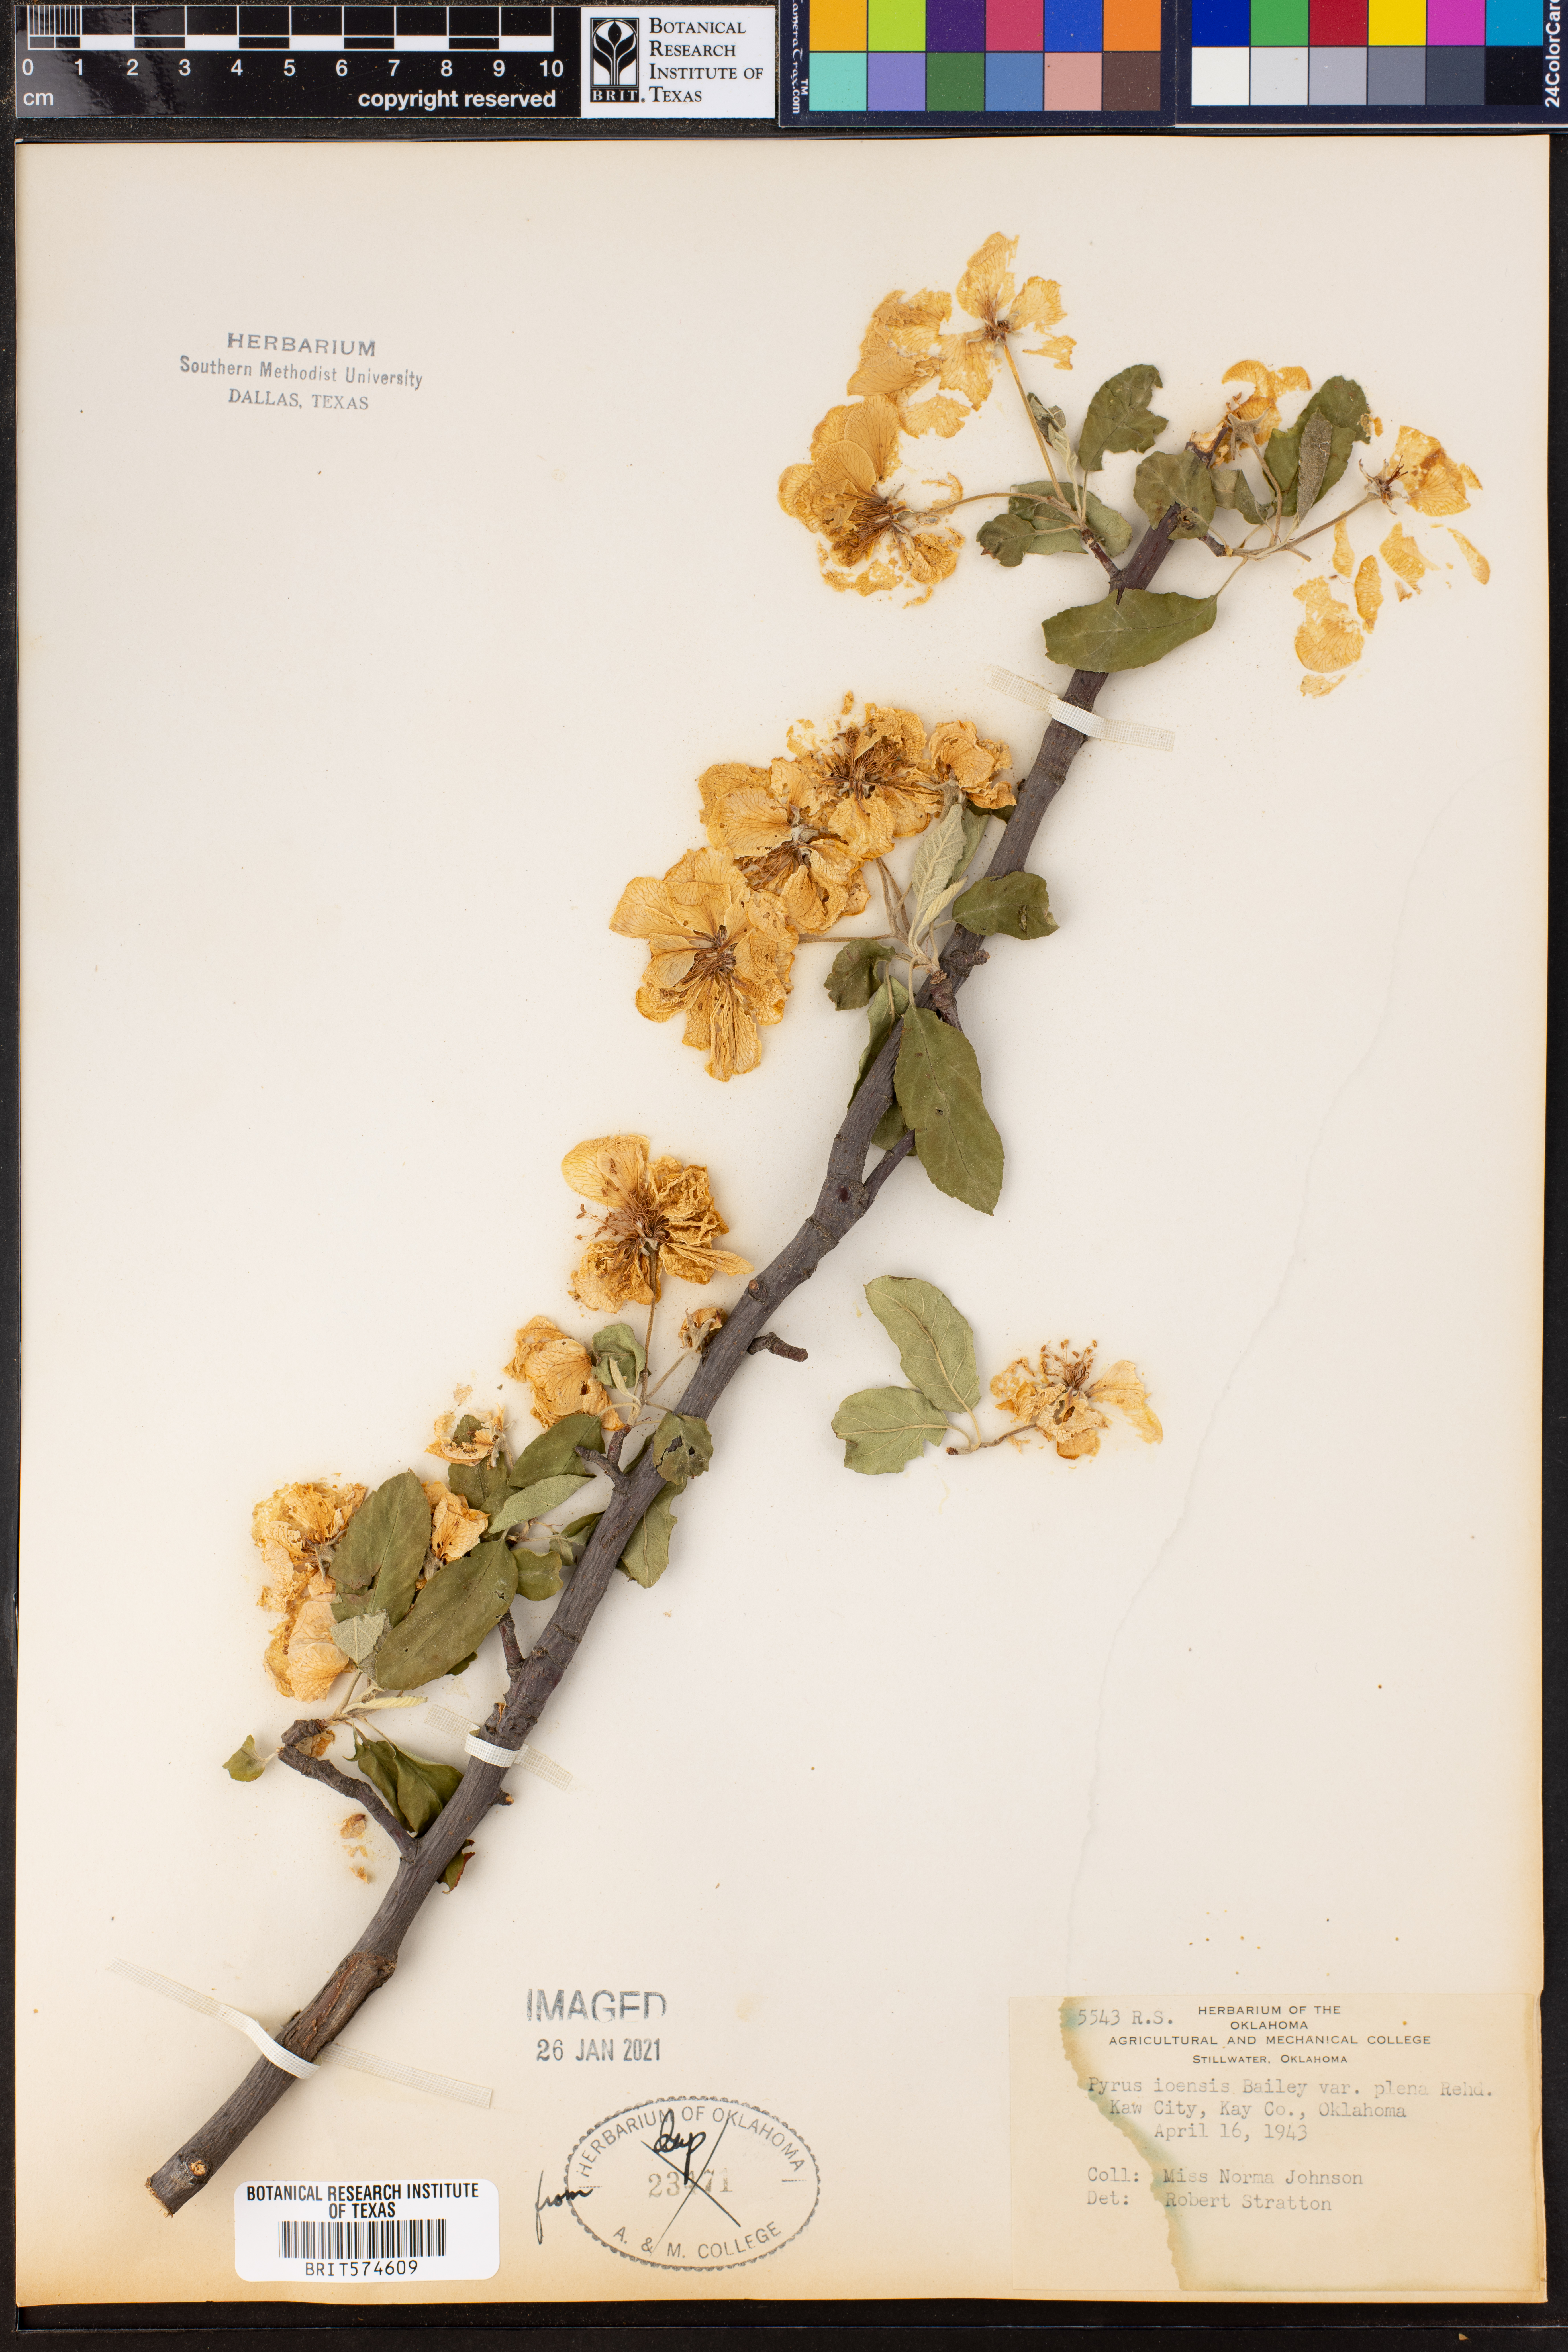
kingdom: Plantae
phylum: Tracheophyta
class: Magnoliopsida
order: Rosales
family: Rosaceae
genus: Malus
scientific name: Malus ioensis
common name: Iowa crab apple
